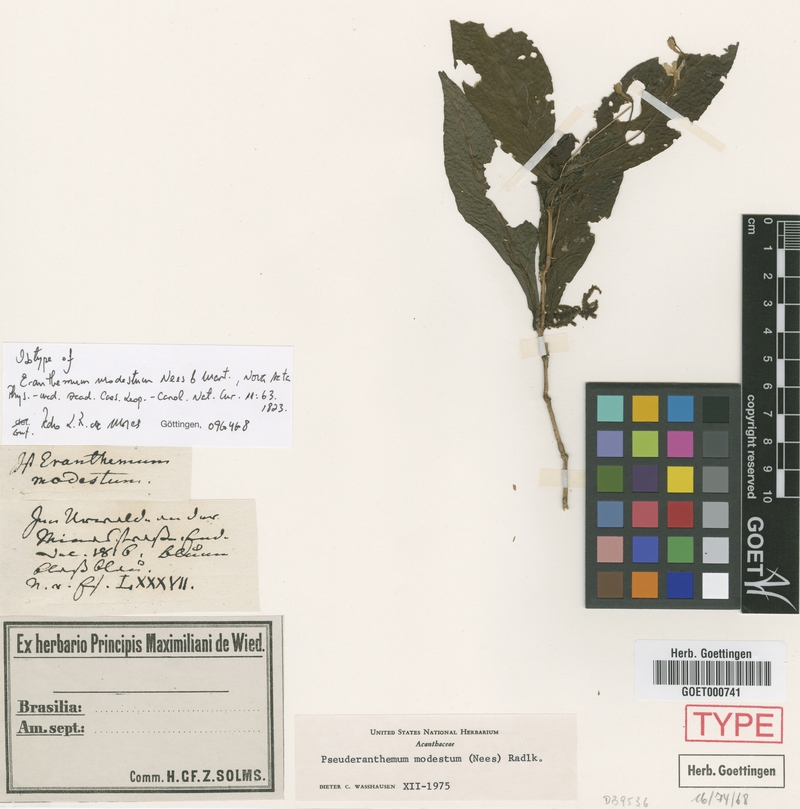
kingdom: Plantae
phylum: Tracheophyta
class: Magnoliopsida
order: Lamiales
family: Acanthaceae
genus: Pseuderanthemum
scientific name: Pseuderanthemum modestum
